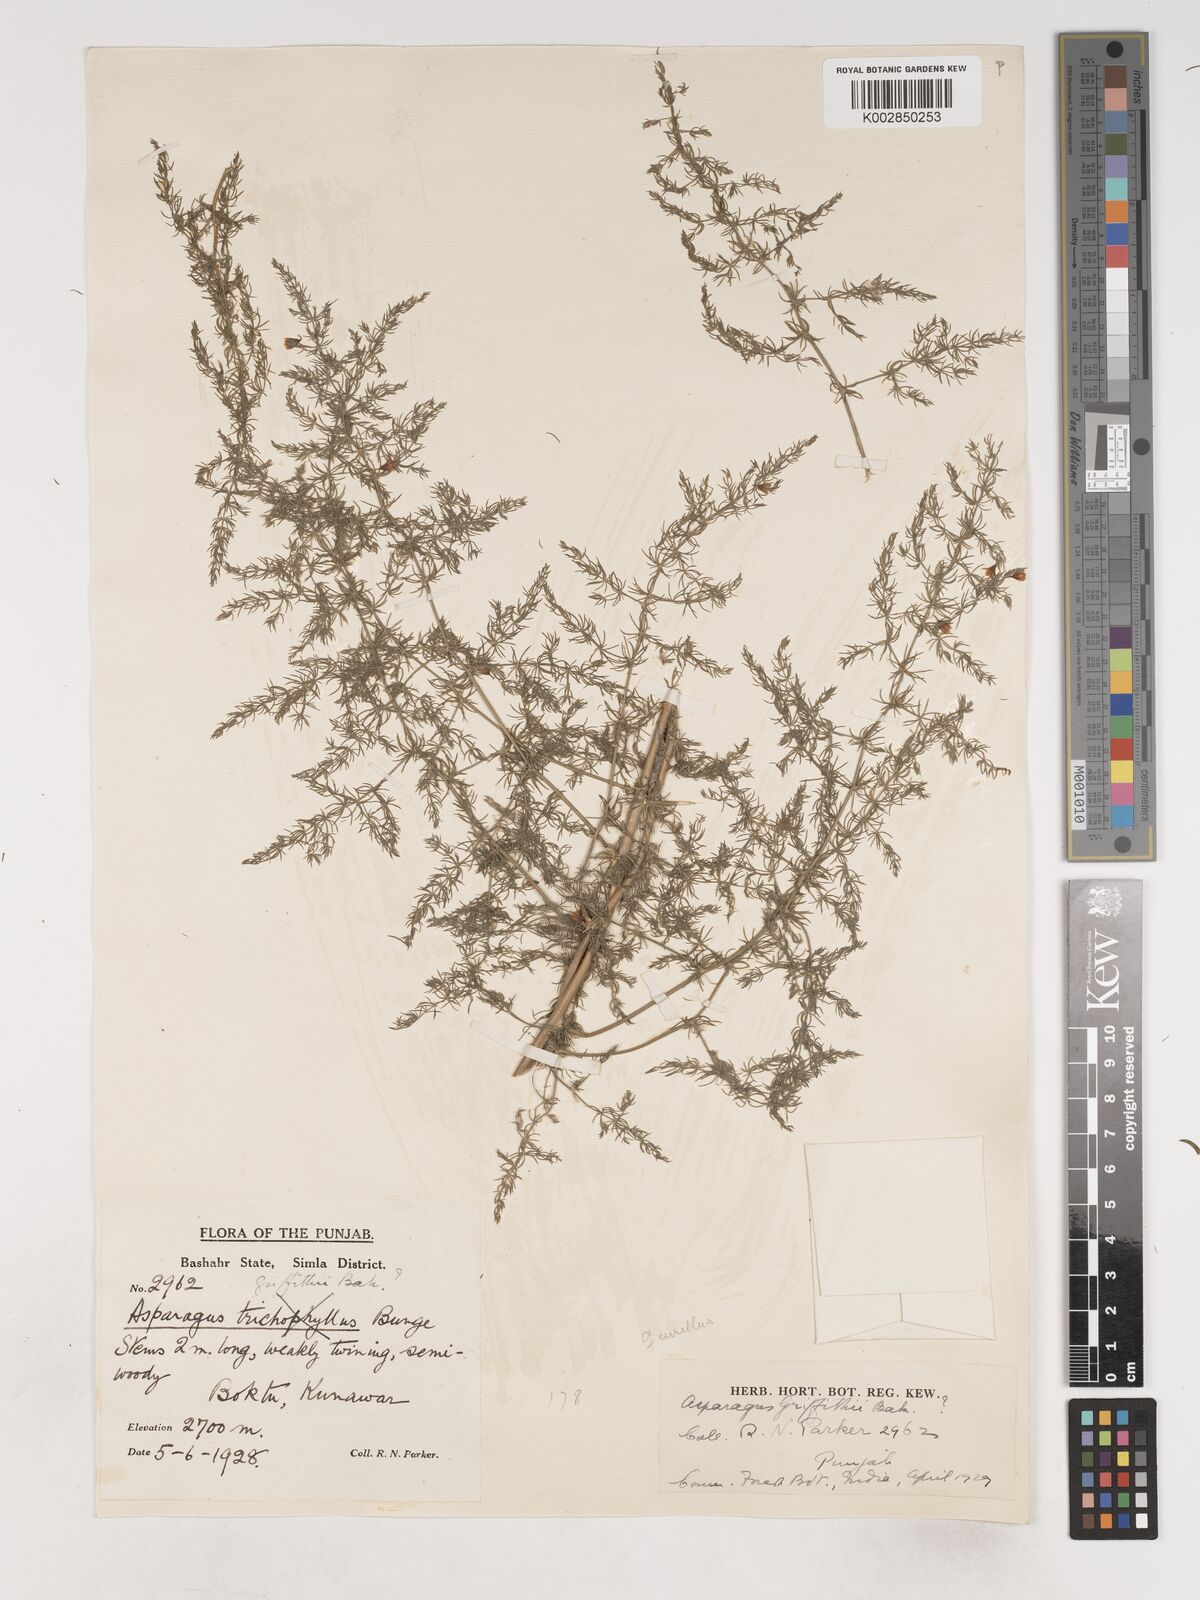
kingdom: Plantae
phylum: Tracheophyta
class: Liliopsida
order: Asparagales
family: Asparagaceae
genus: Asparagus
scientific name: Asparagus griffithii
